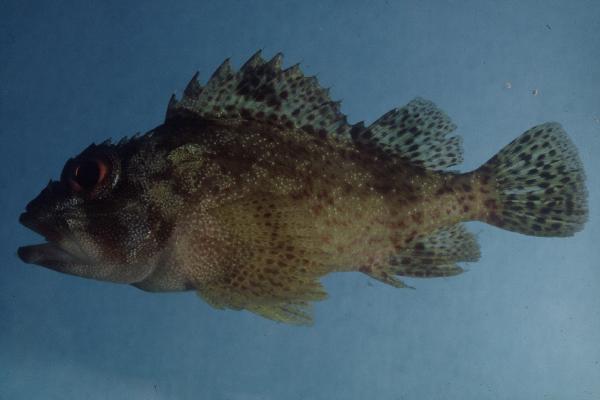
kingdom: Animalia
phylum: Chordata
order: Scorpaeniformes
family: Scorpaenidae
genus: Sebastapistes
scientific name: Sebastapistes tinkhami
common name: Darkspotted scorpionfish
